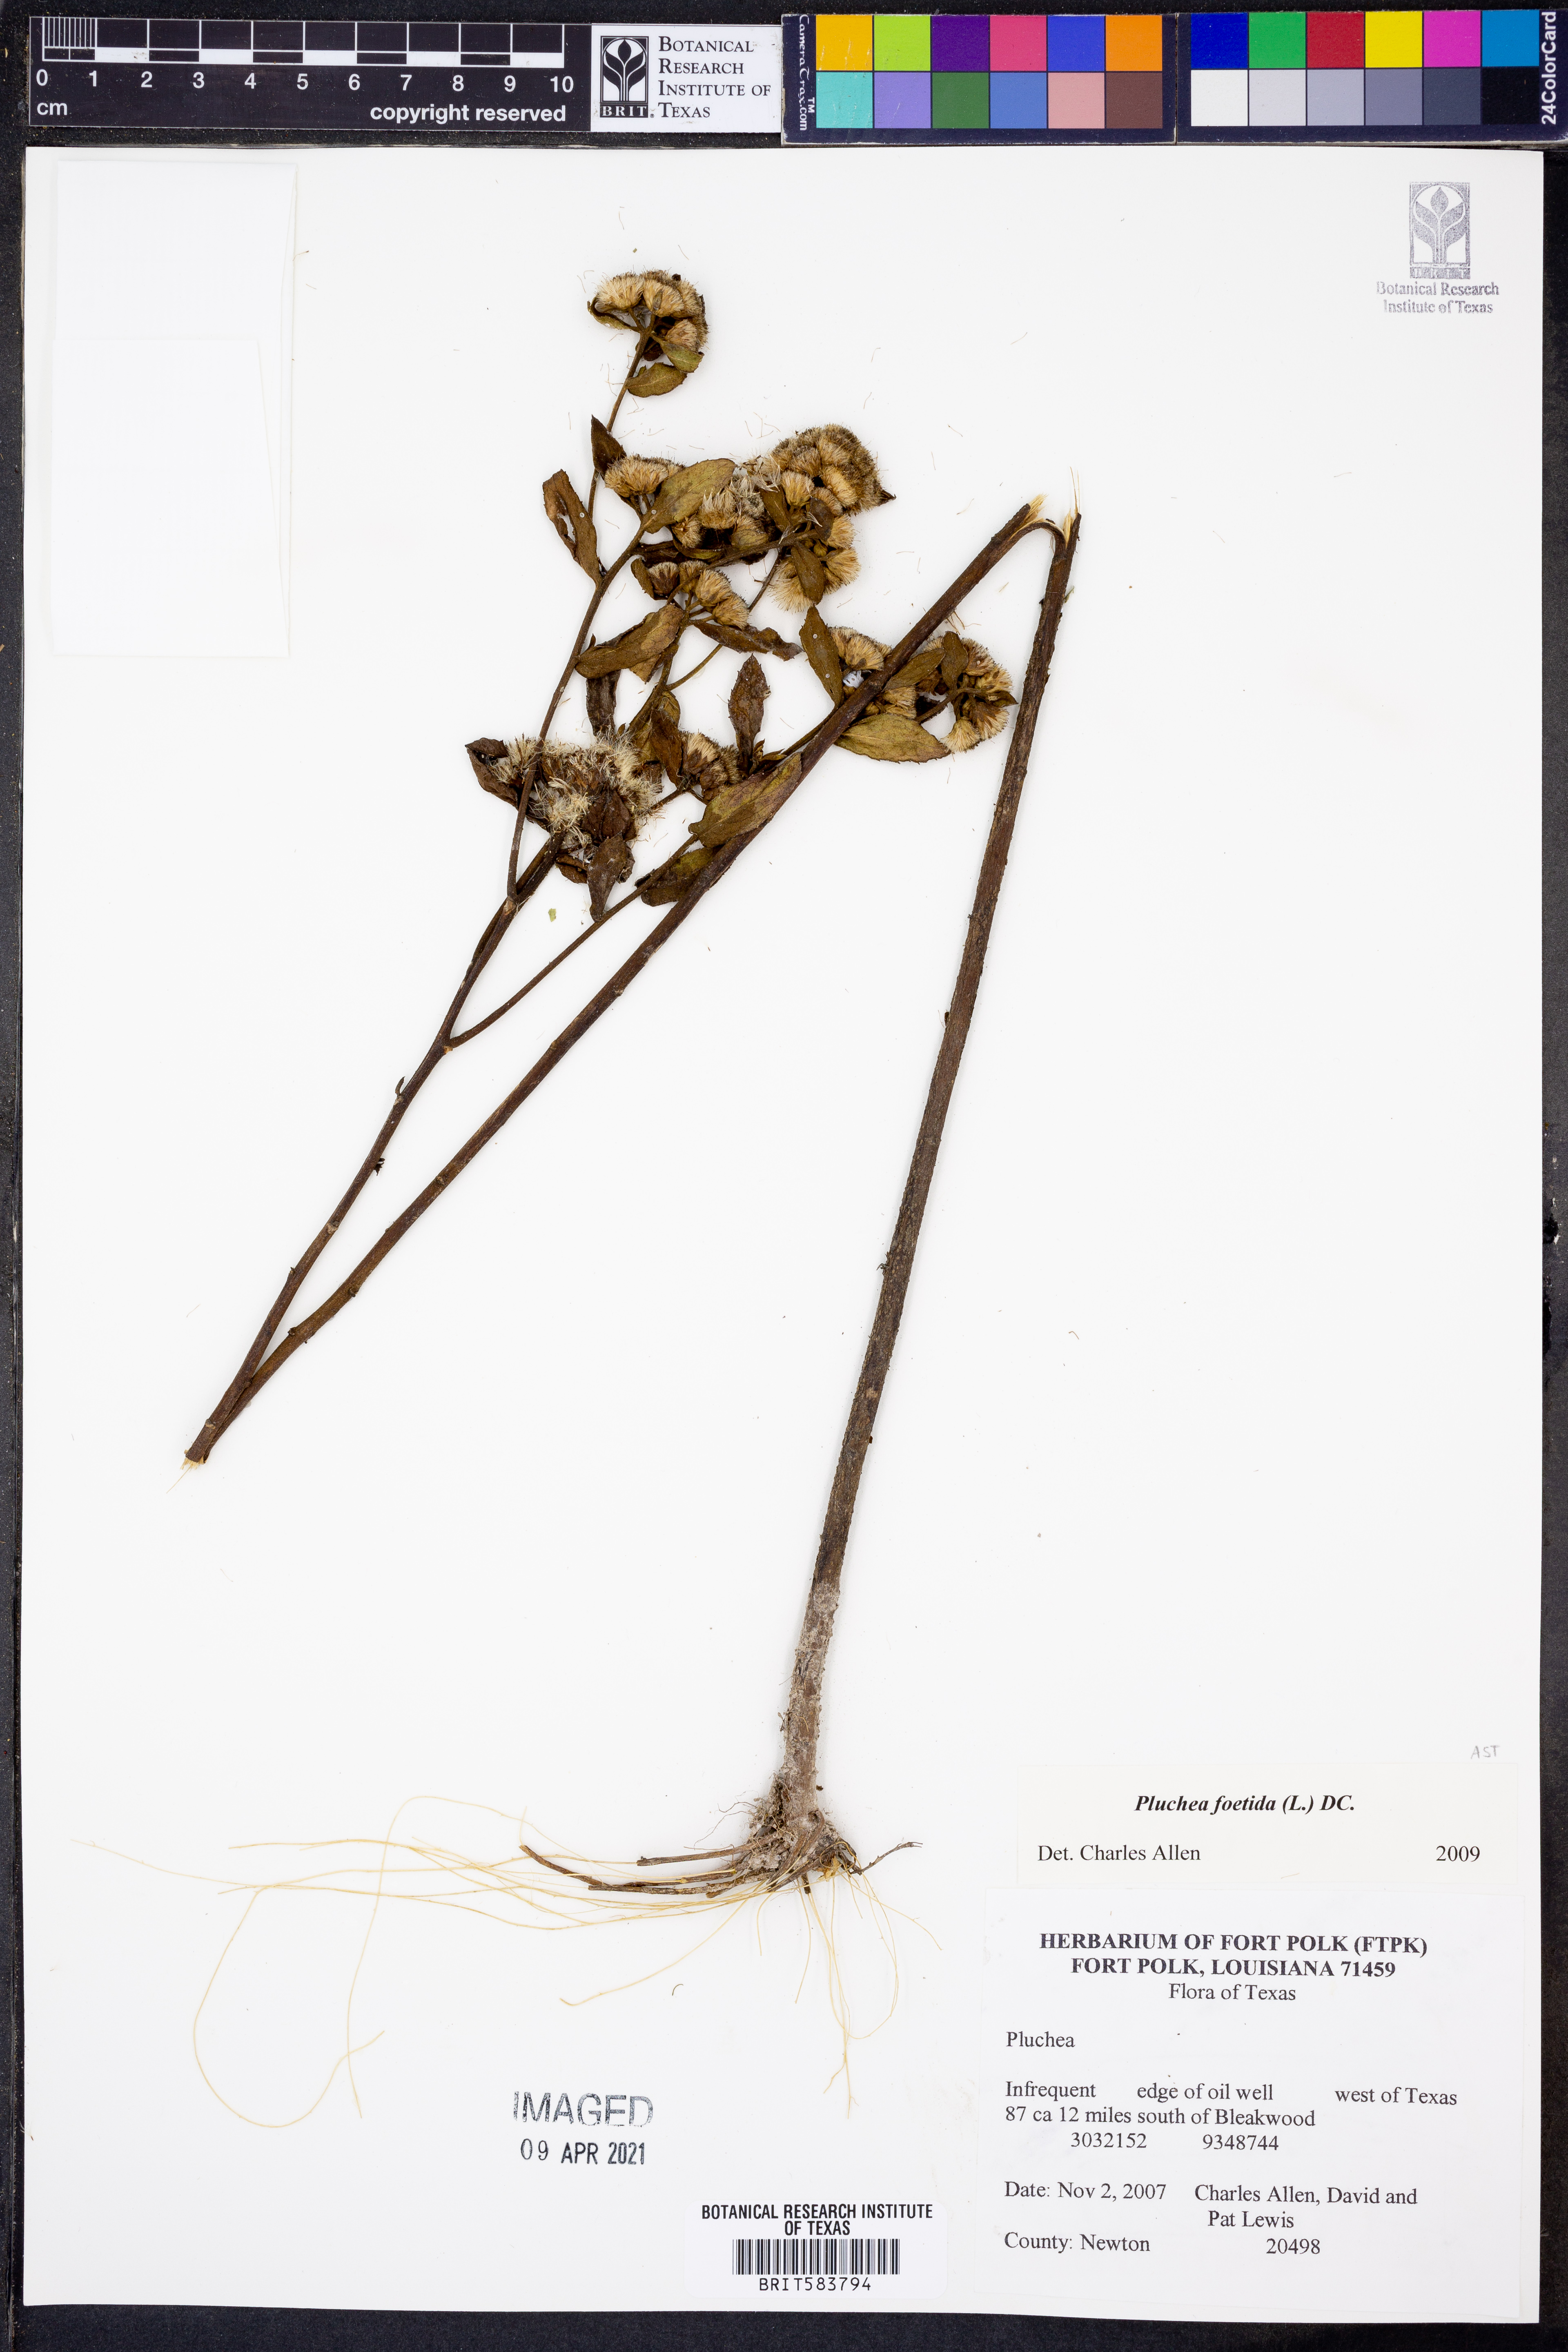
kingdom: Plantae
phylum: Tracheophyta
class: Magnoliopsida
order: Asterales
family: Asteraceae
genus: Pluchea
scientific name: Pluchea foetida
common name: Stinking camphorweed
